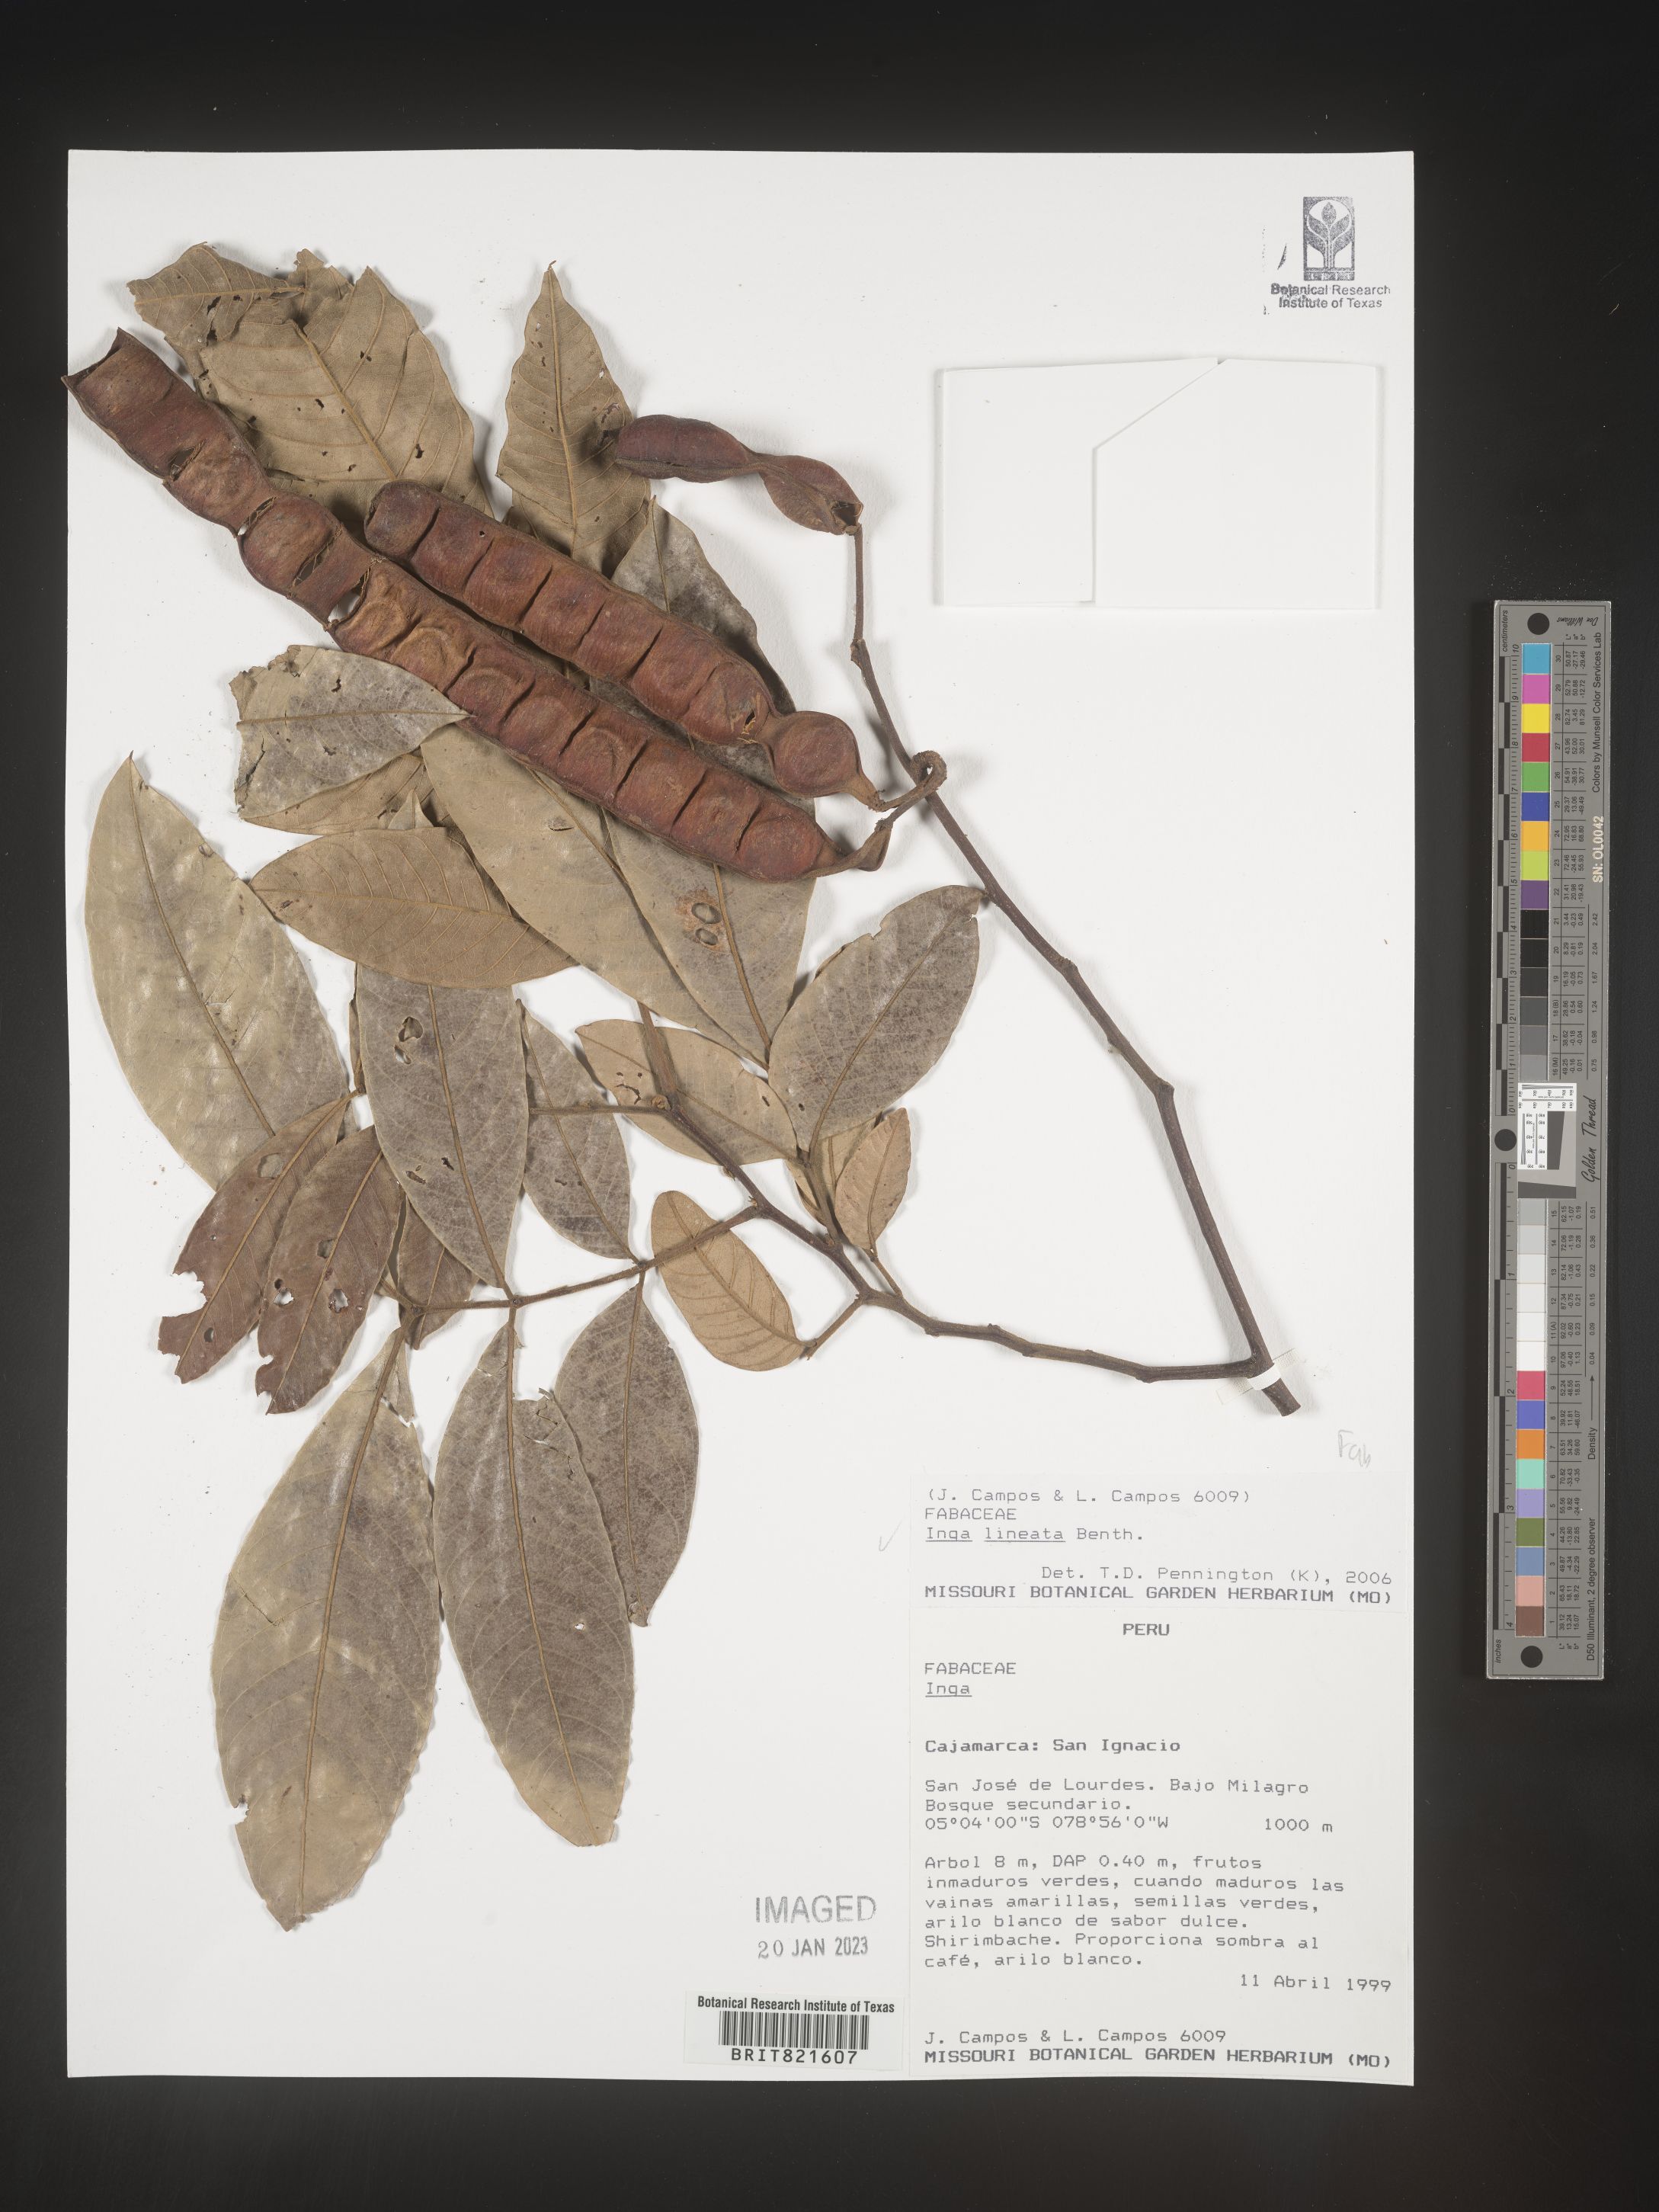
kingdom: Plantae
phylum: Tracheophyta
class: Magnoliopsida
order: Fabales
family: Fabaceae
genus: Inga
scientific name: Inga
